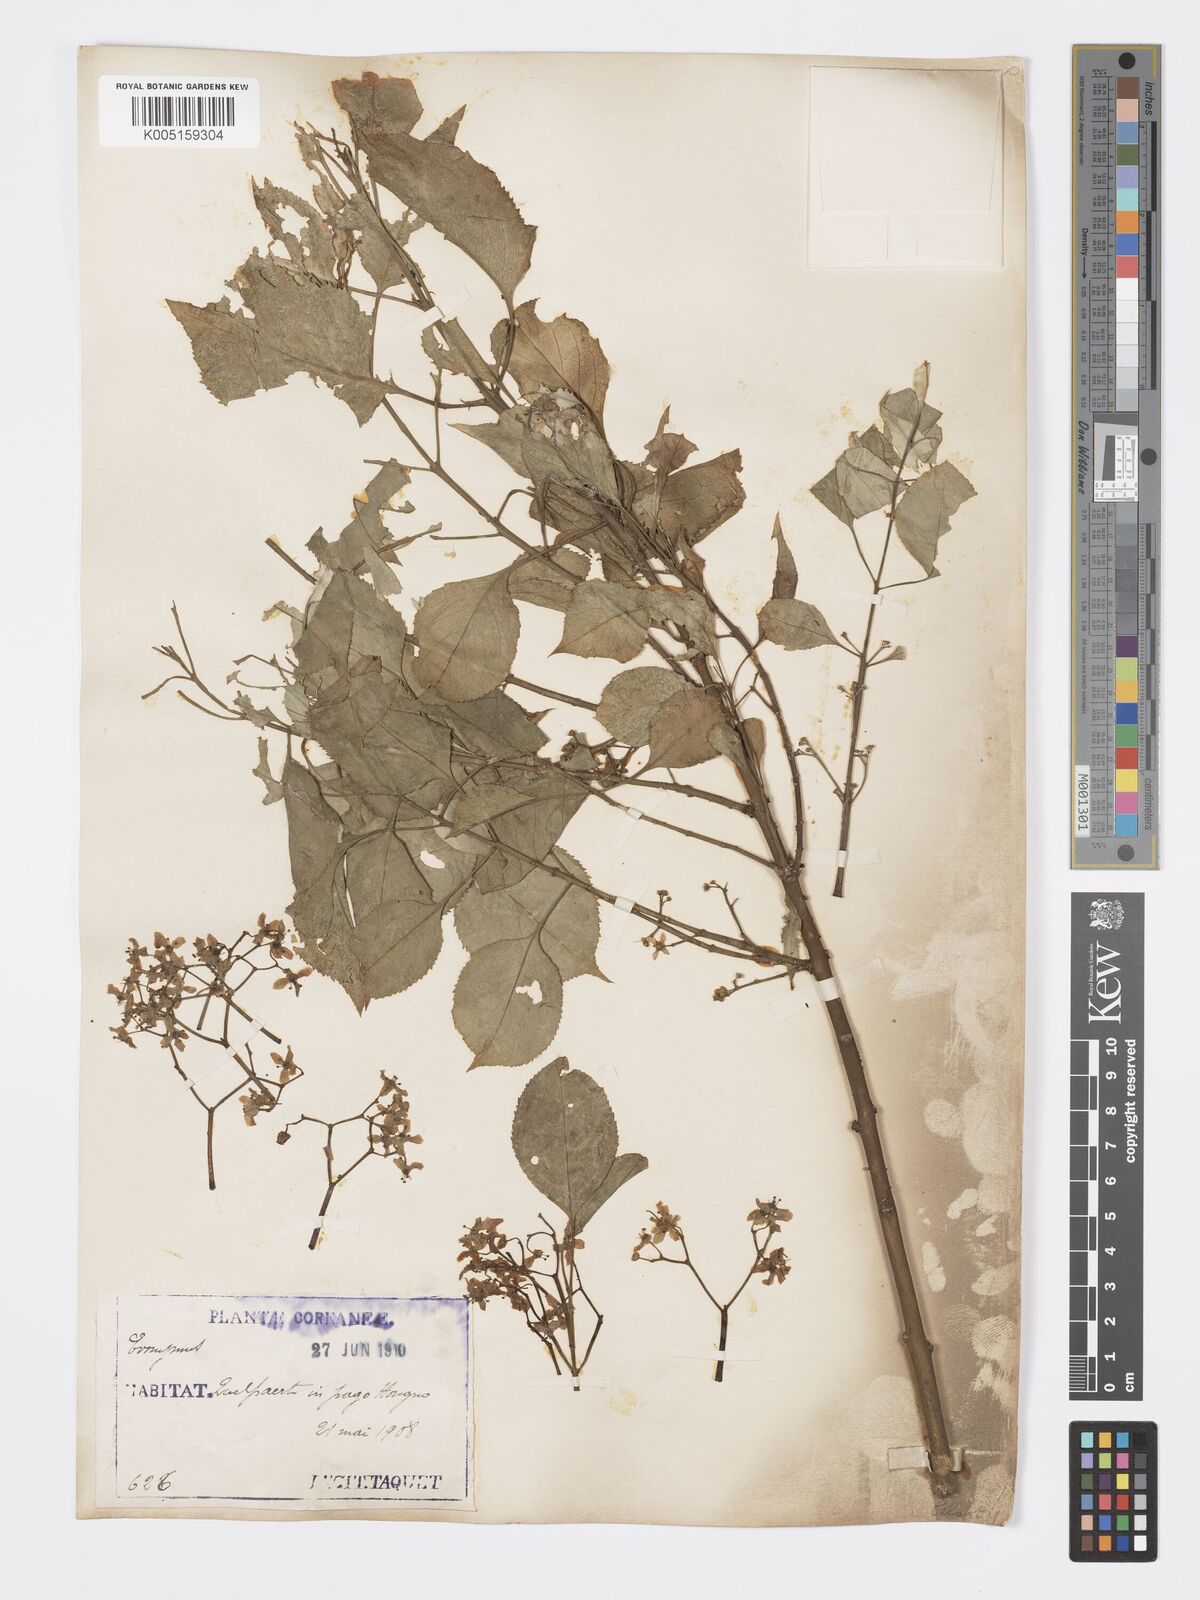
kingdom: Plantae
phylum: Tracheophyta
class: Magnoliopsida
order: Celastrales
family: Celastraceae
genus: Euonymus
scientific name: Euonymus maackii
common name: Hamilton's spindletree
